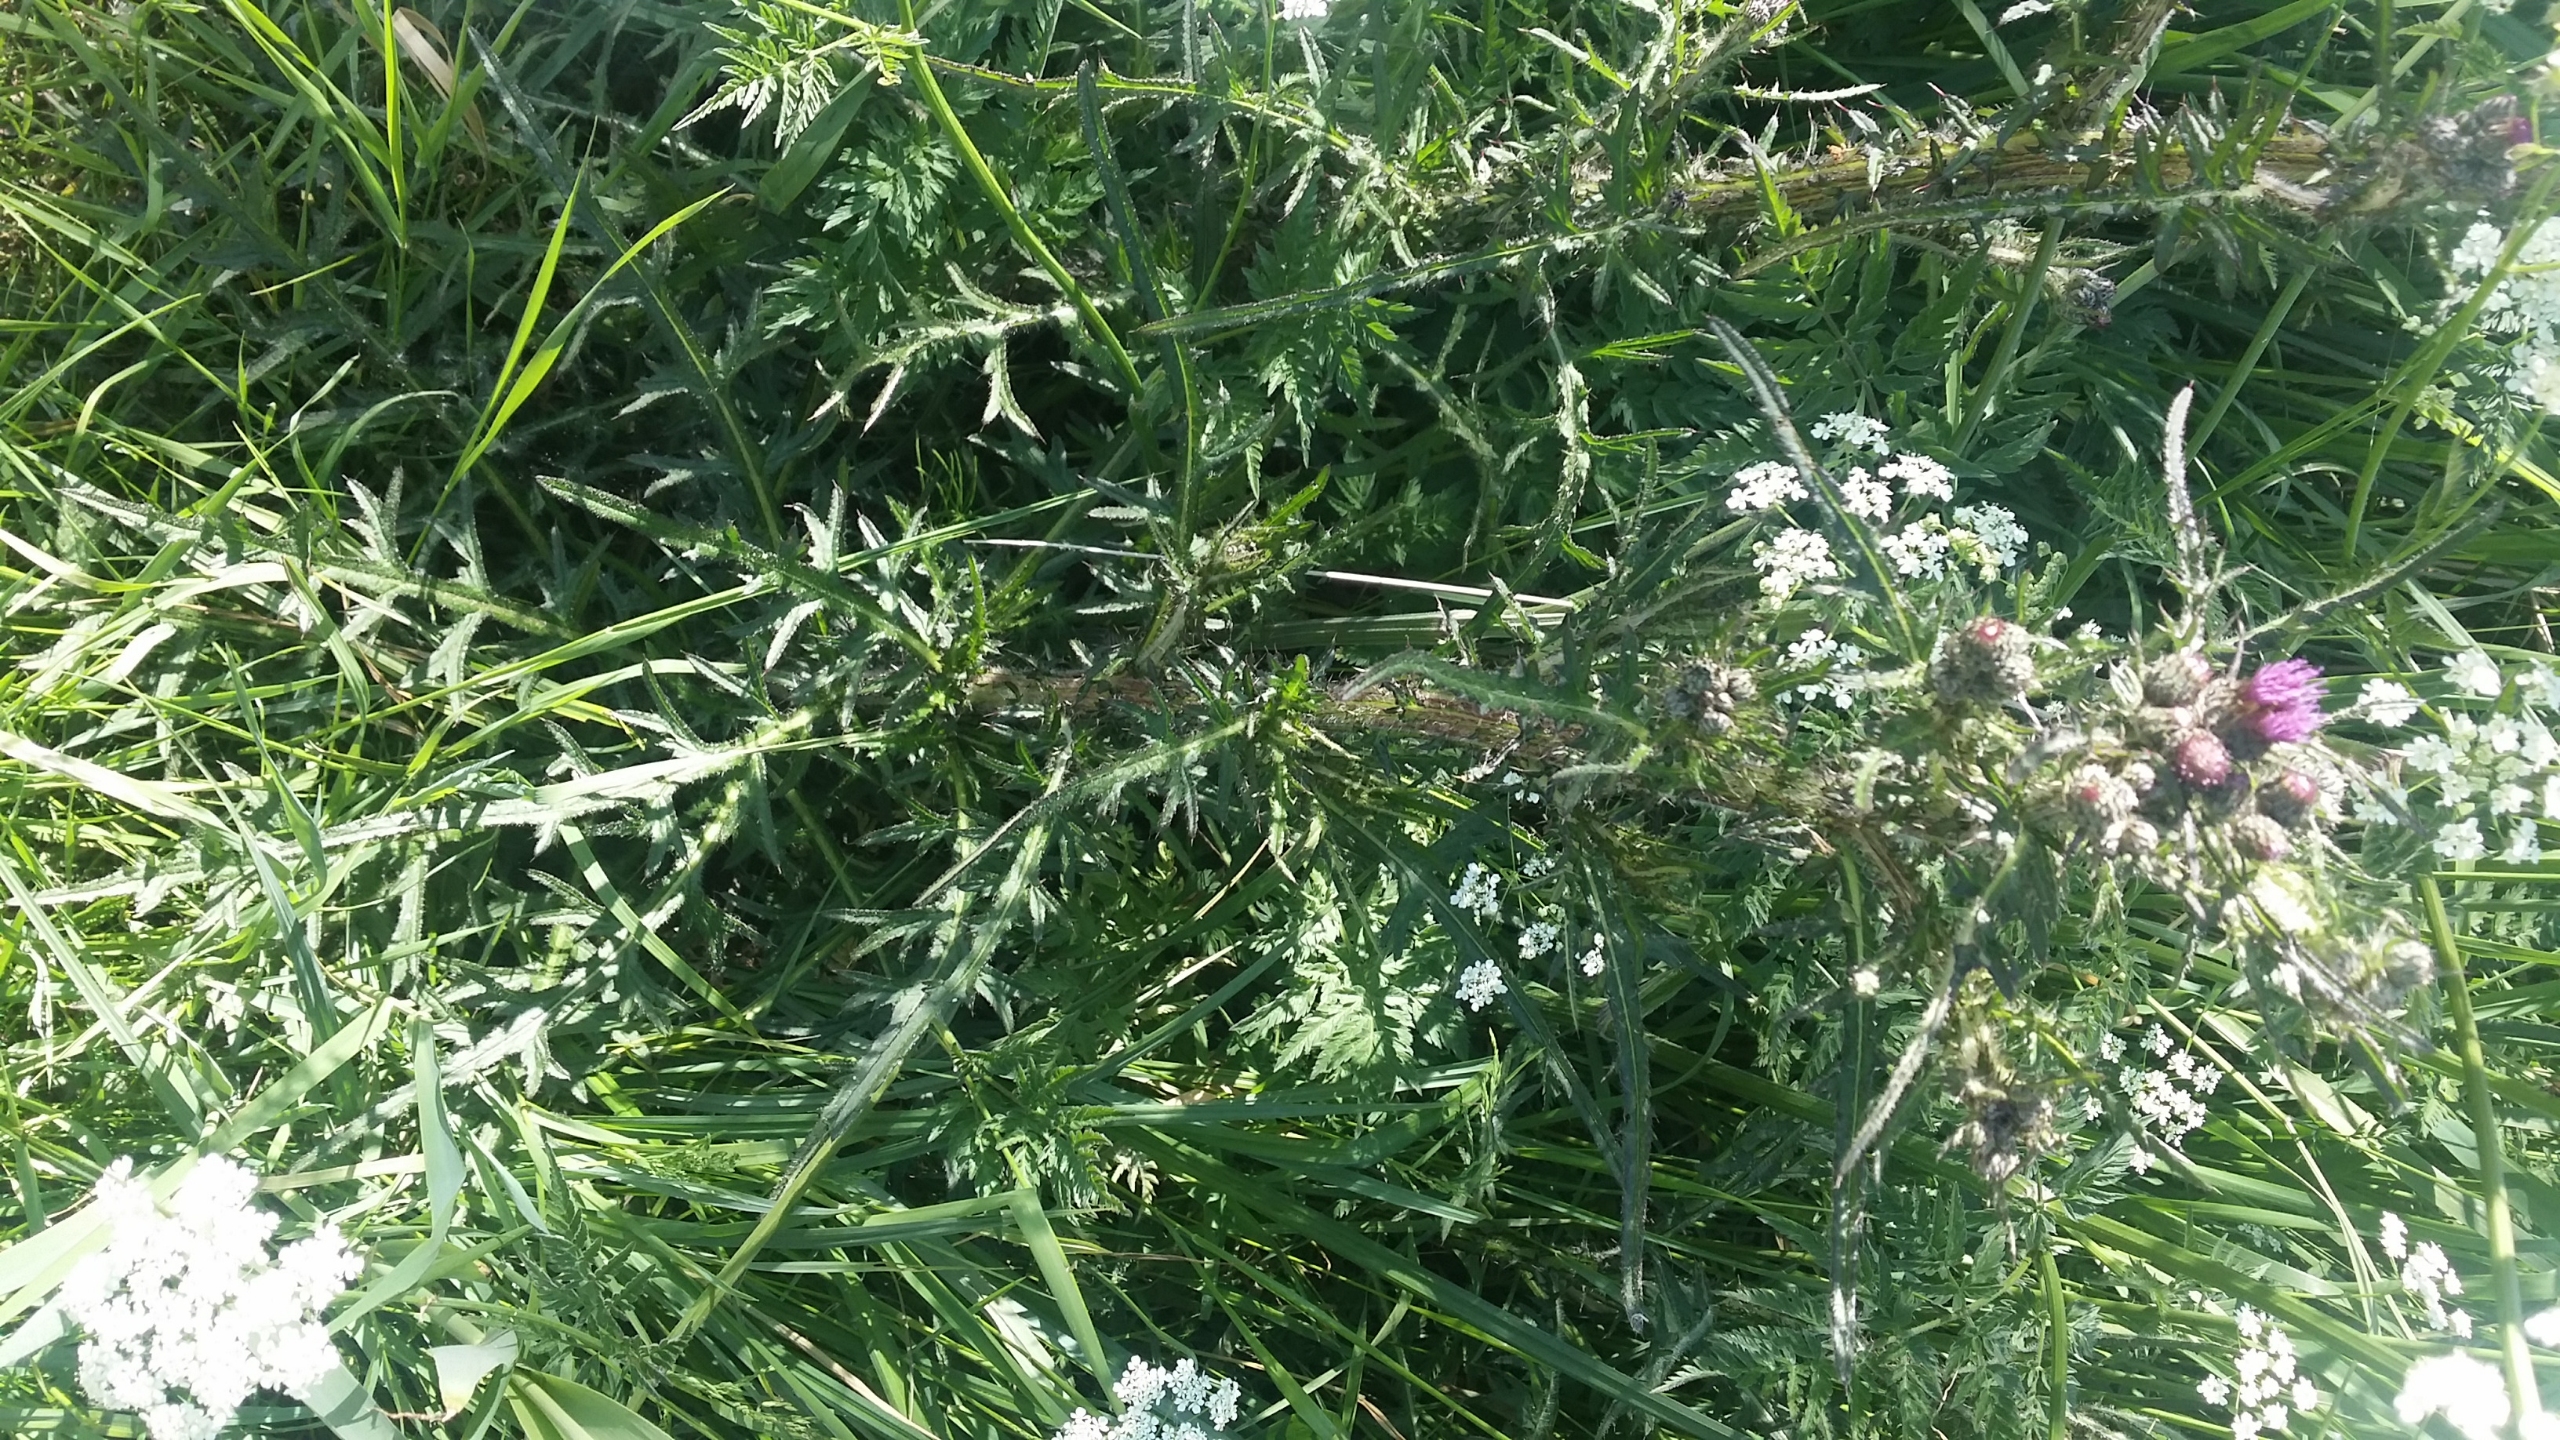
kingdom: Plantae
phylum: Tracheophyta
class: Magnoliopsida
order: Asterales
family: Asteraceae
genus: Cirsium
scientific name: Cirsium palustre
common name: Kær-tidsel
